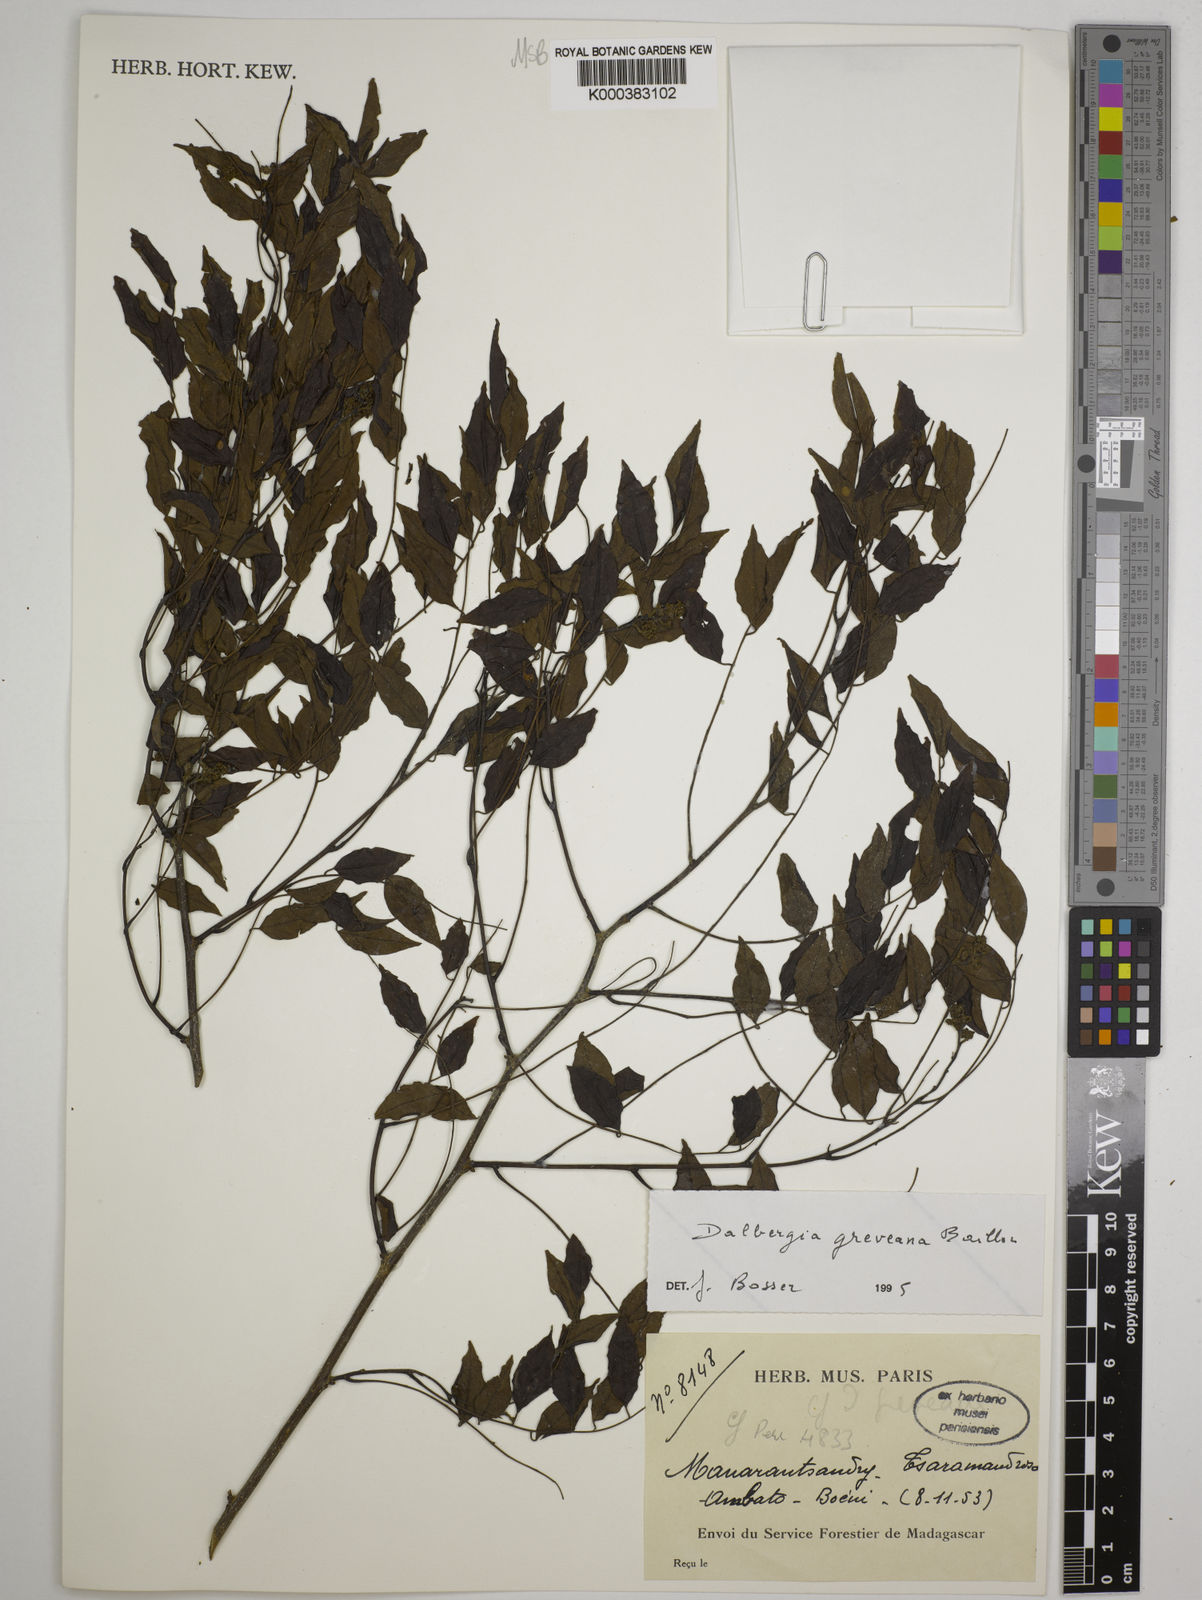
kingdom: Plantae
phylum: Tracheophyta
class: Magnoliopsida
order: Fabales
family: Fabaceae
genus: Dalbergia
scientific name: Dalbergia greveana
